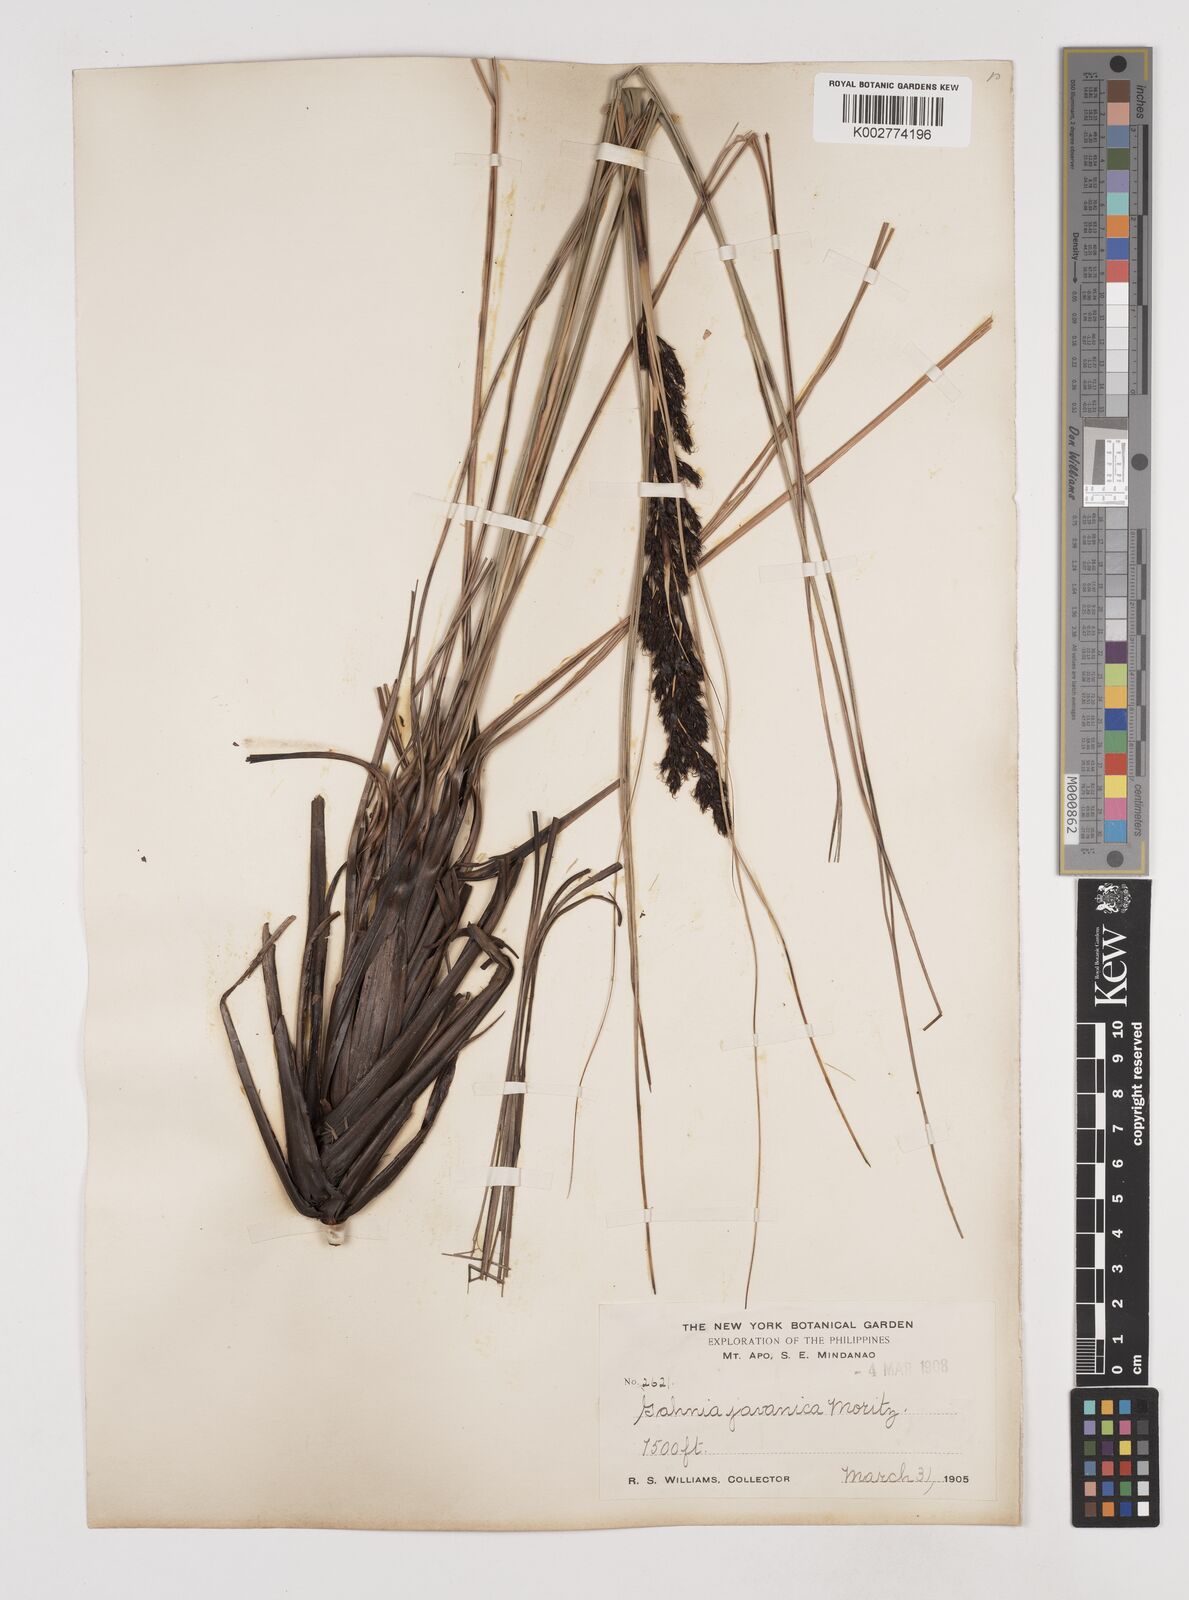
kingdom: Plantae
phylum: Tracheophyta
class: Liliopsida
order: Poales
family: Cyperaceae
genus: Gahnia
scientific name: Gahnia javanica
